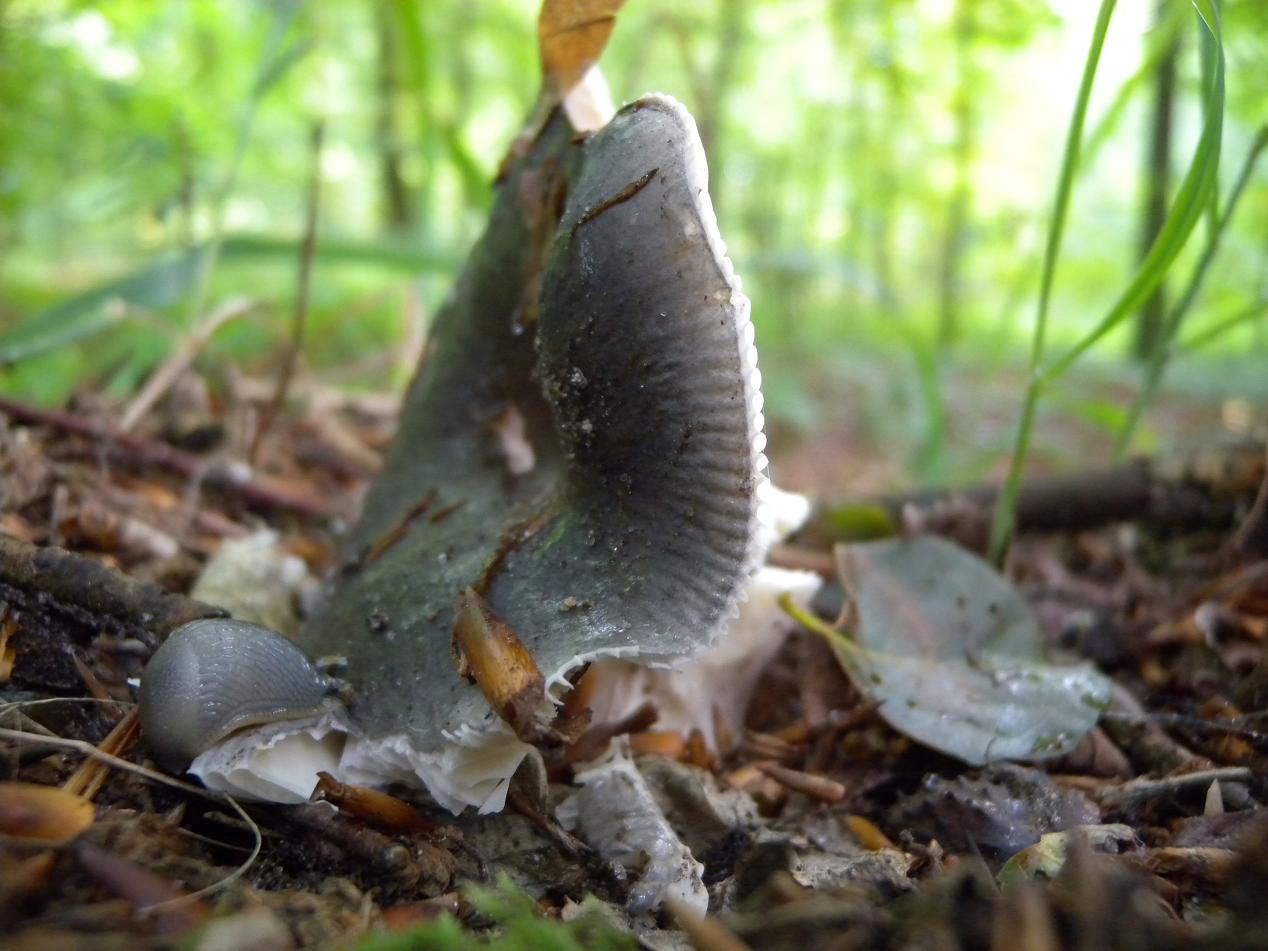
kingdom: Fungi
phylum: Basidiomycota
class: Agaricomycetes
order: Russulales
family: Russulaceae
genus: Russula
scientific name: Russula parazurea
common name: blågrå skørhat
